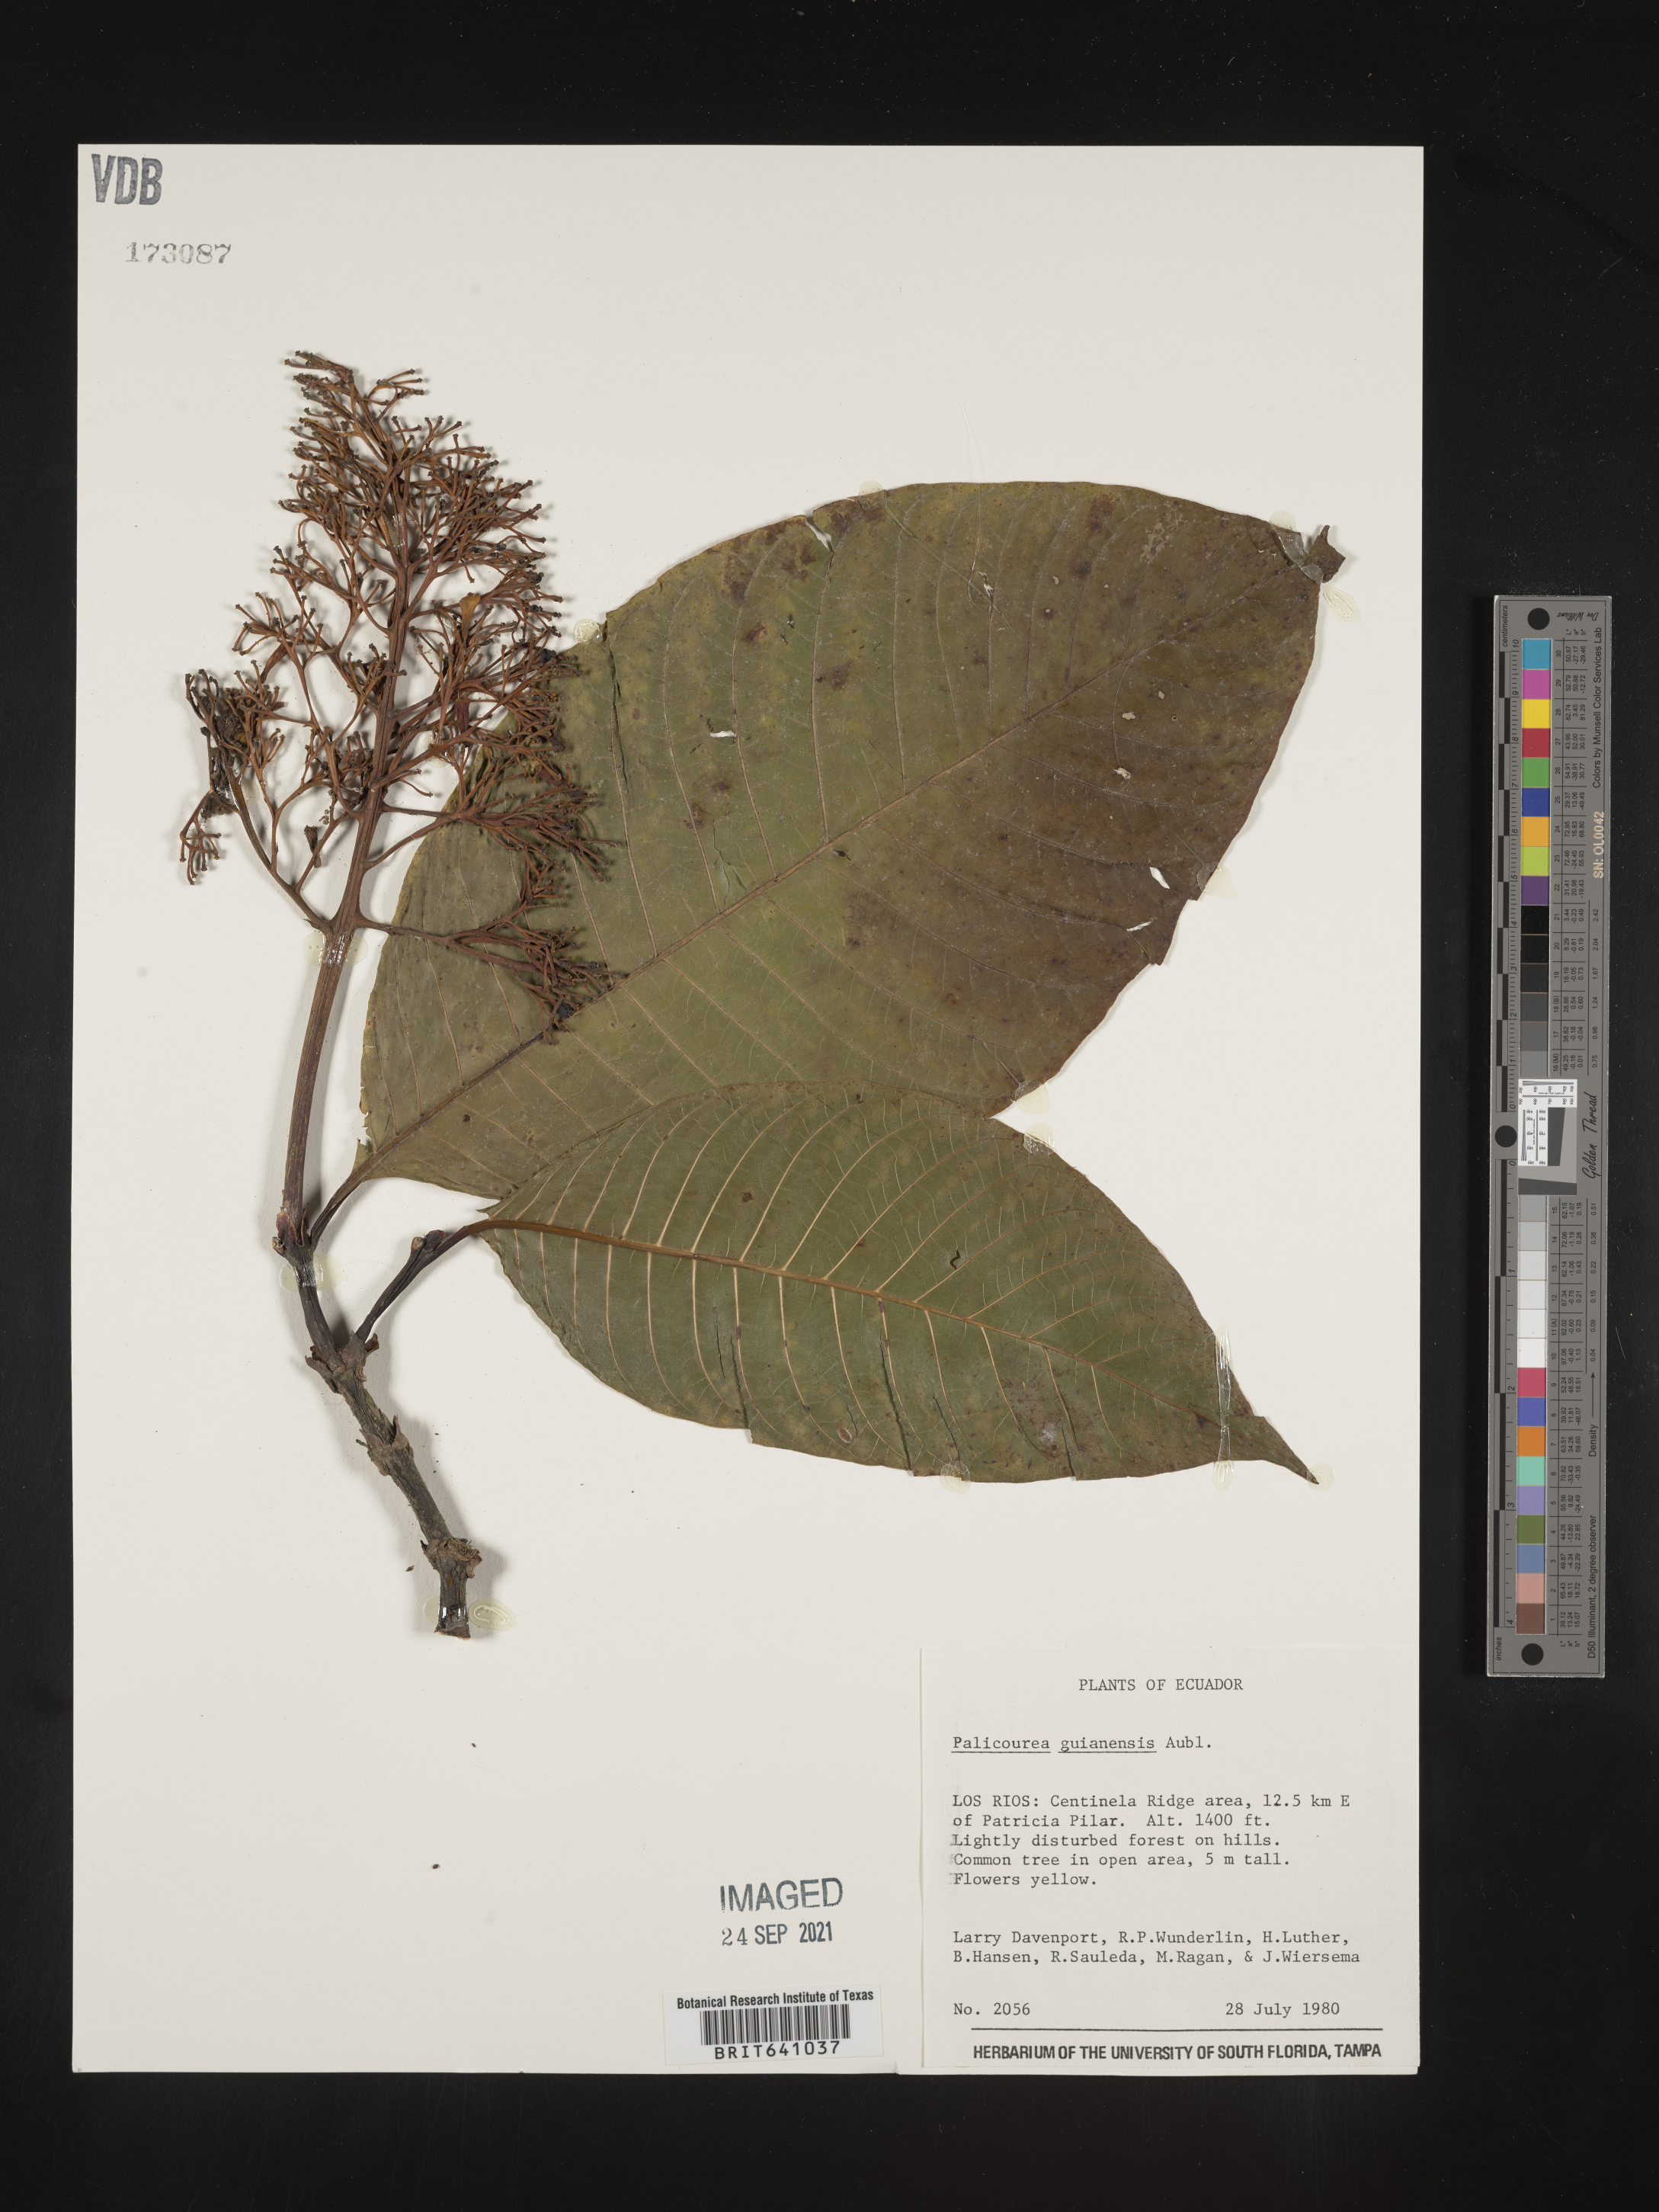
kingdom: Plantae
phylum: Tracheophyta
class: Magnoliopsida
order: Gentianales
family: Rubiaceae
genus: Palicourea
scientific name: Palicourea
